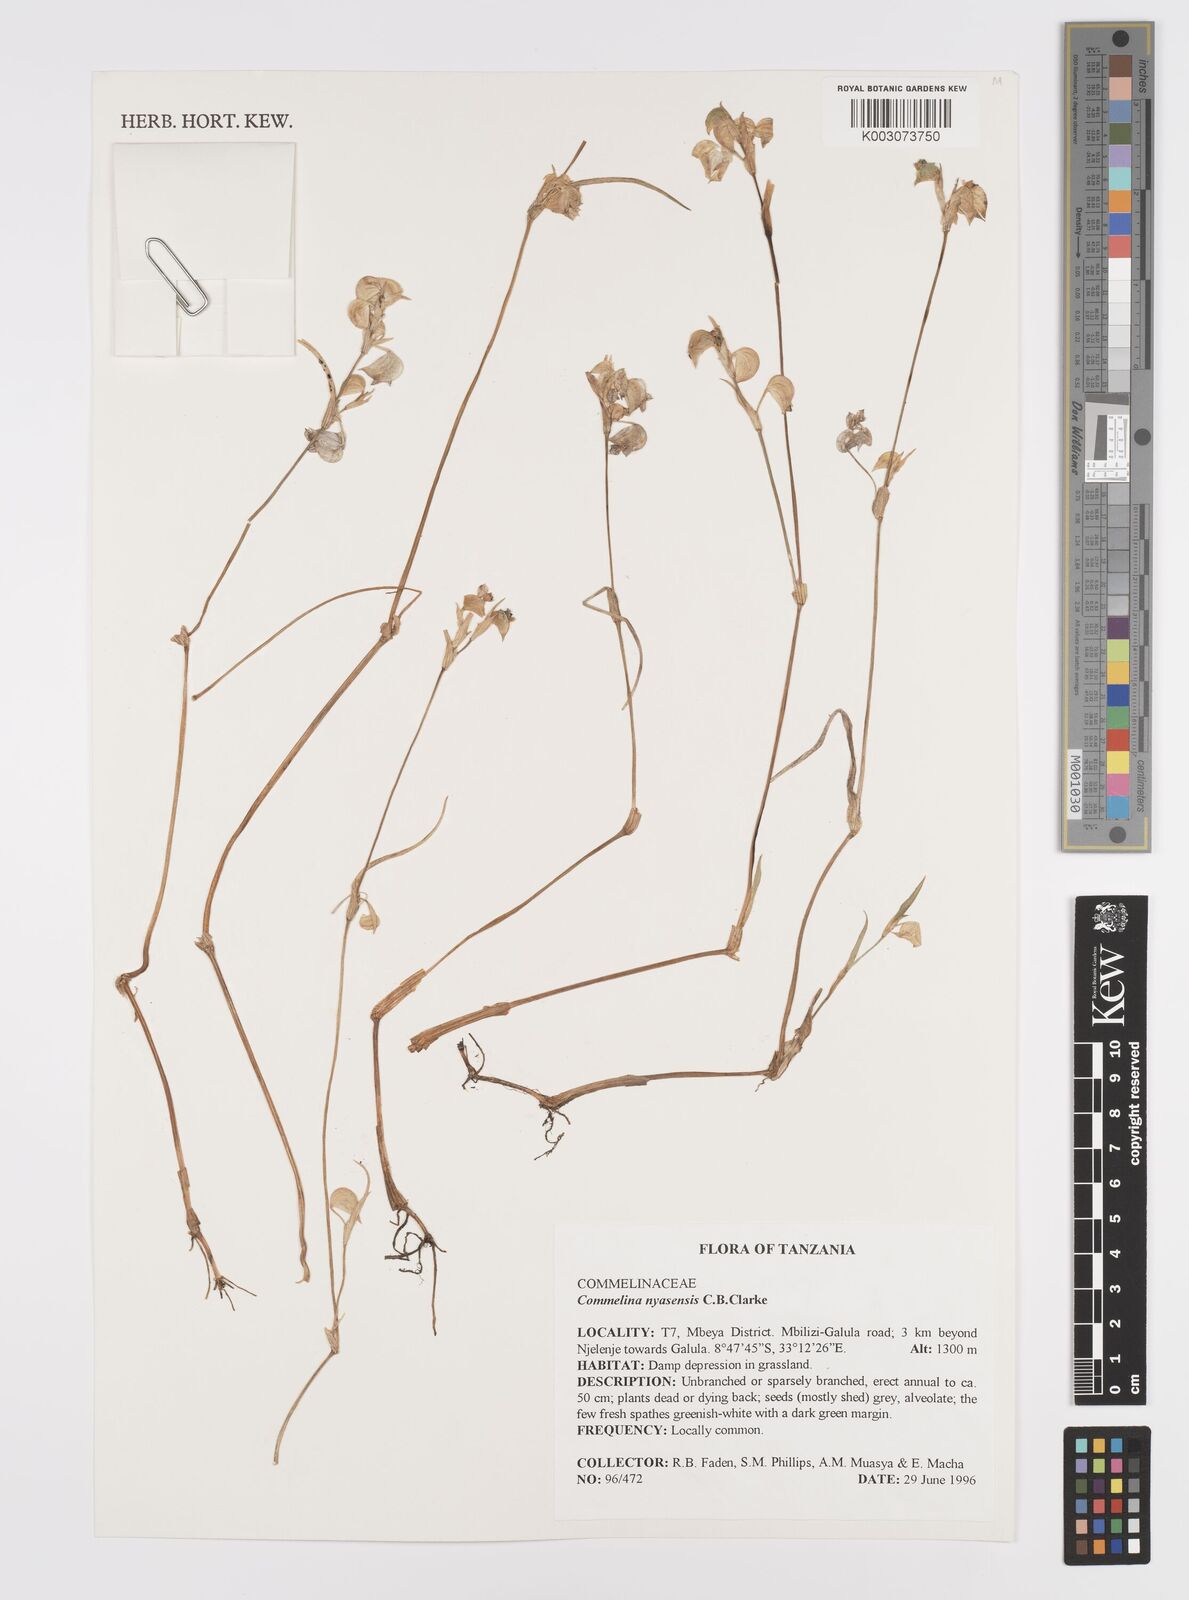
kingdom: Plantae
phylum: Tracheophyta
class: Liliopsida
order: Commelinales
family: Commelinaceae
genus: Commelina
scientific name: Commelina nyasensis
